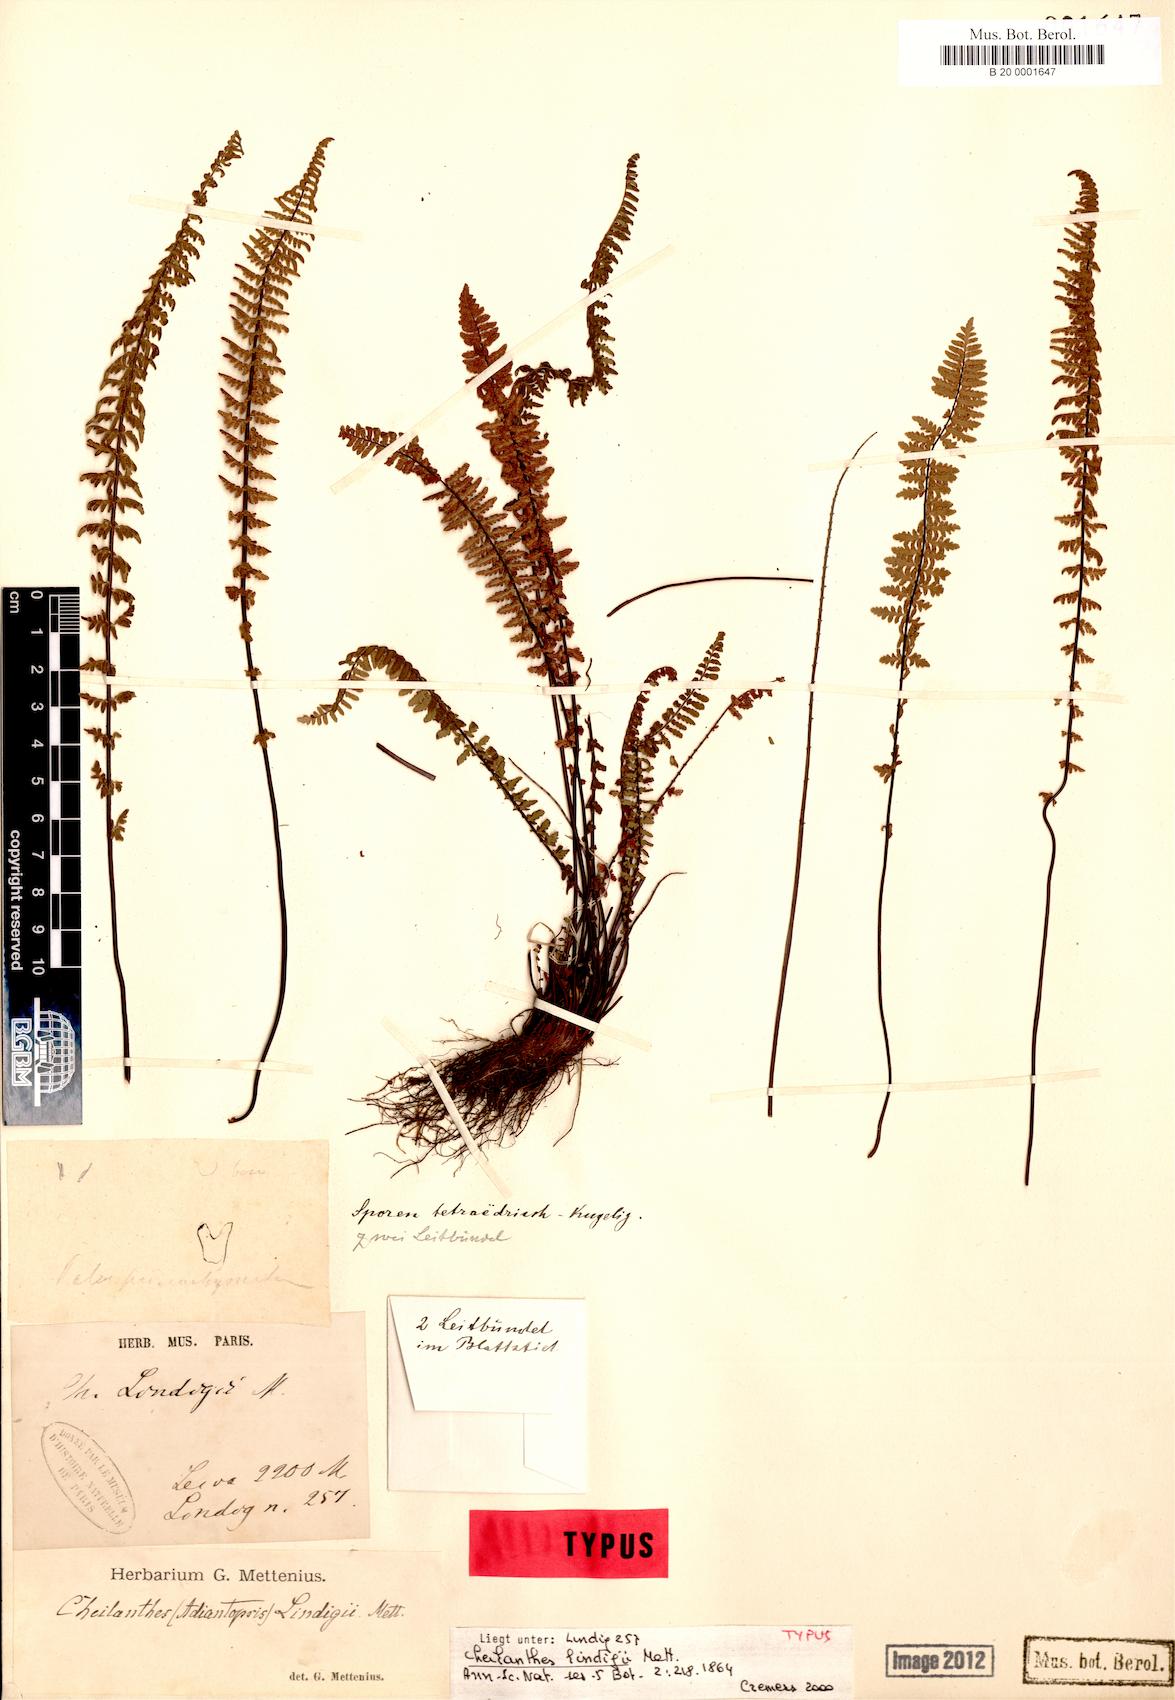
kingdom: Plantae
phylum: Tracheophyta
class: Polypodiopsida
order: Polypodiales
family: Pteridaceae
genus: Adiantopsis
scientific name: Adiantopsis lindigii
